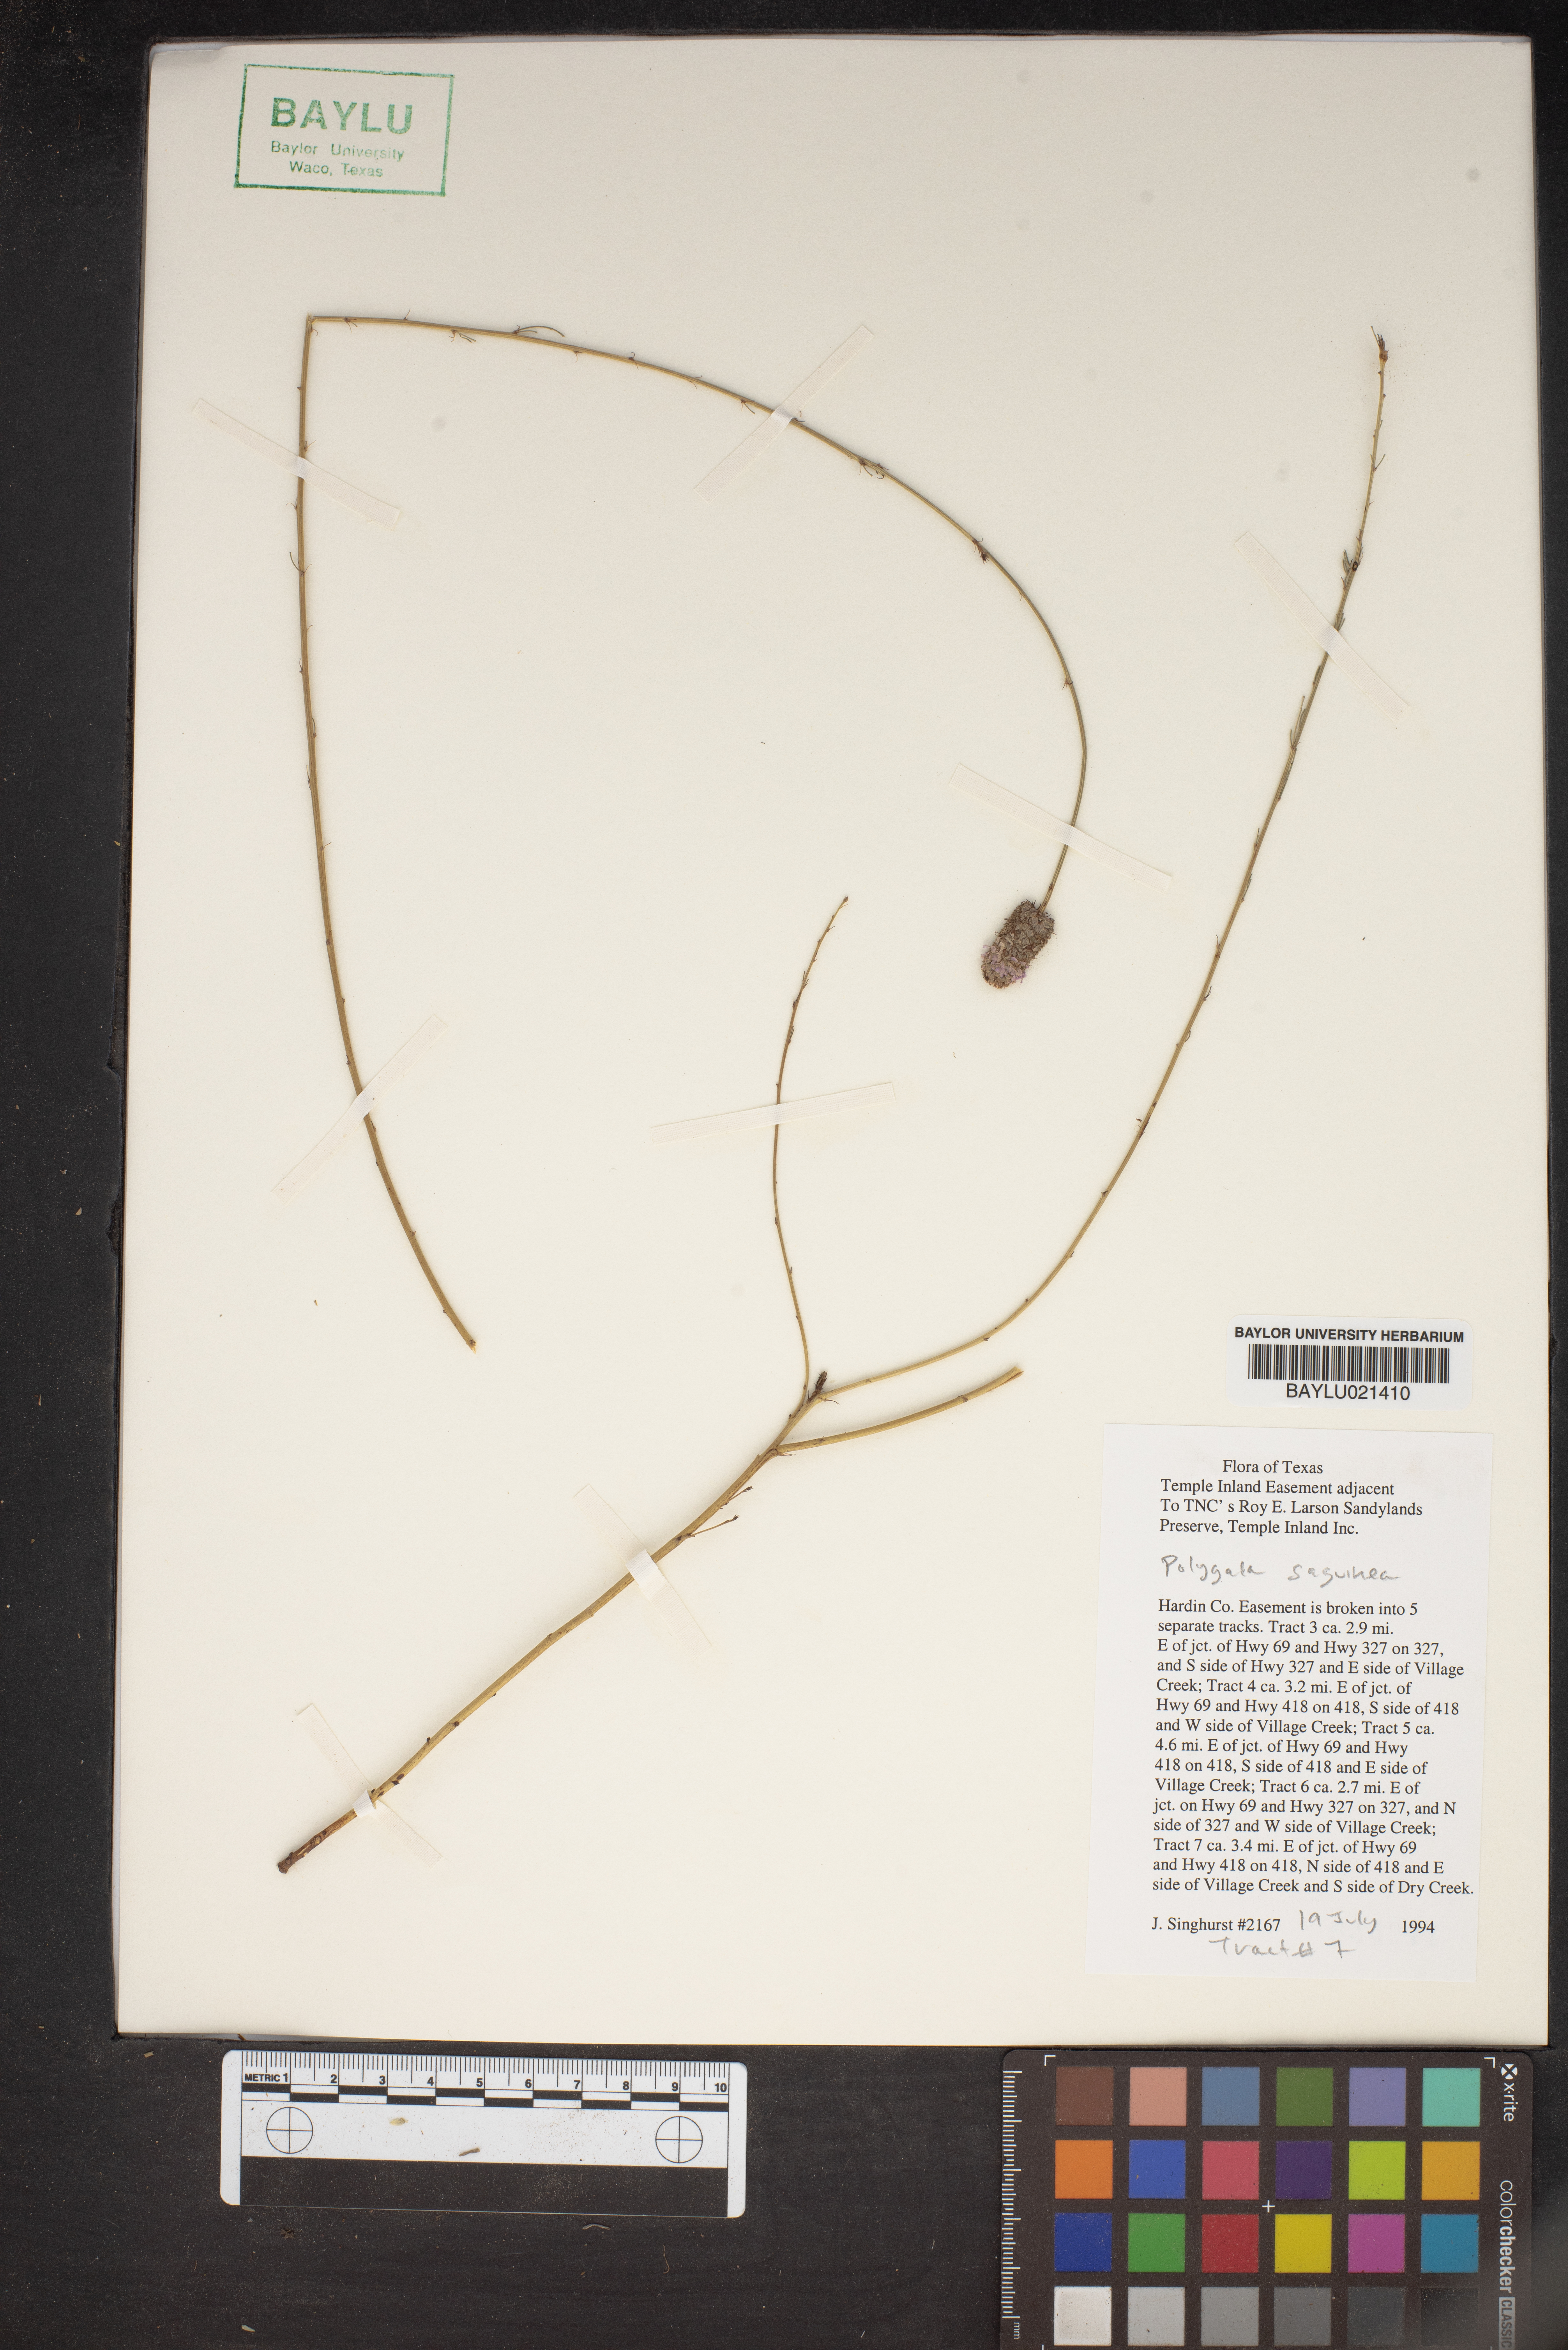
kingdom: Plantae
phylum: Tracheophyta
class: Magnoliopsida
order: Fabales
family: Polygalaceae
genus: Polygala
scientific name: Polygala sanguinea
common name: Blood milkwort
